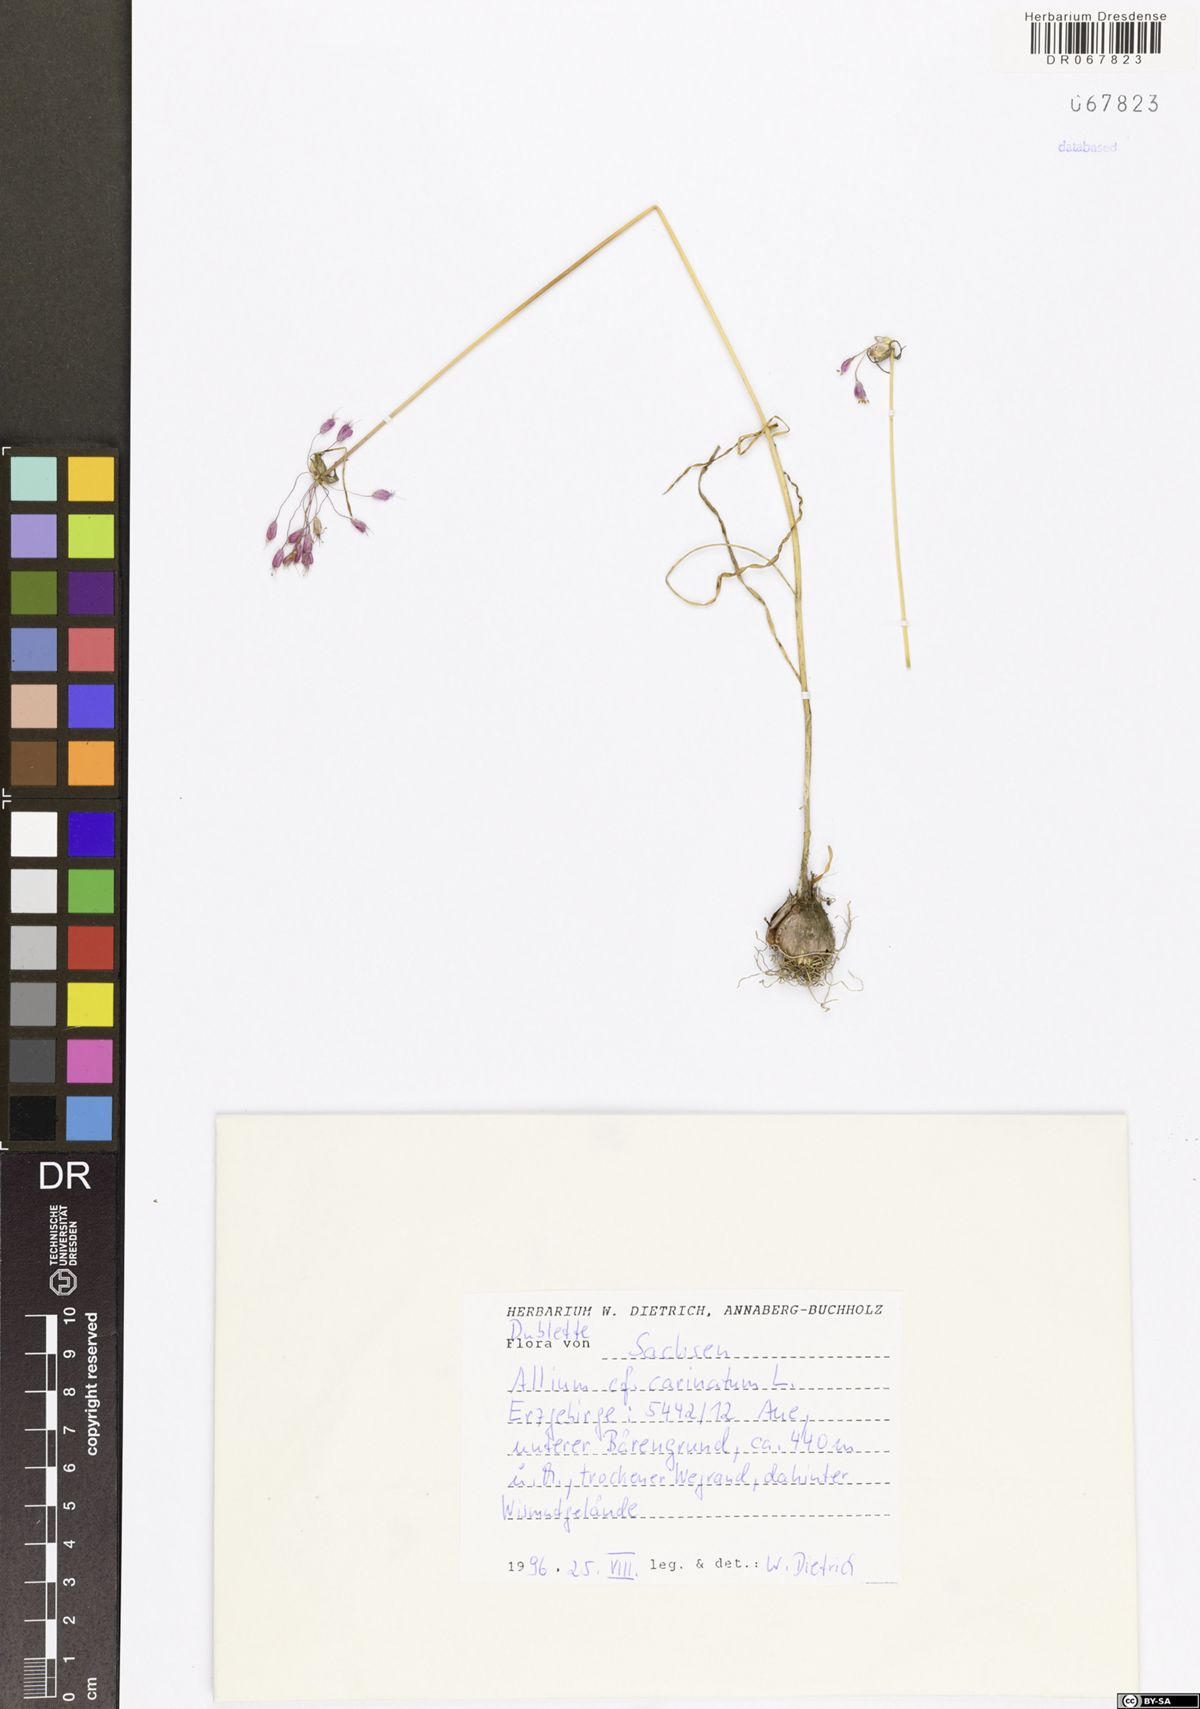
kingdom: Plantae
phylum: Tracheophyta
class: Liliopsida
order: Asparagales
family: Amaryllidaceae
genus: Allium
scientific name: Allium carinatum
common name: Keeled garlic
